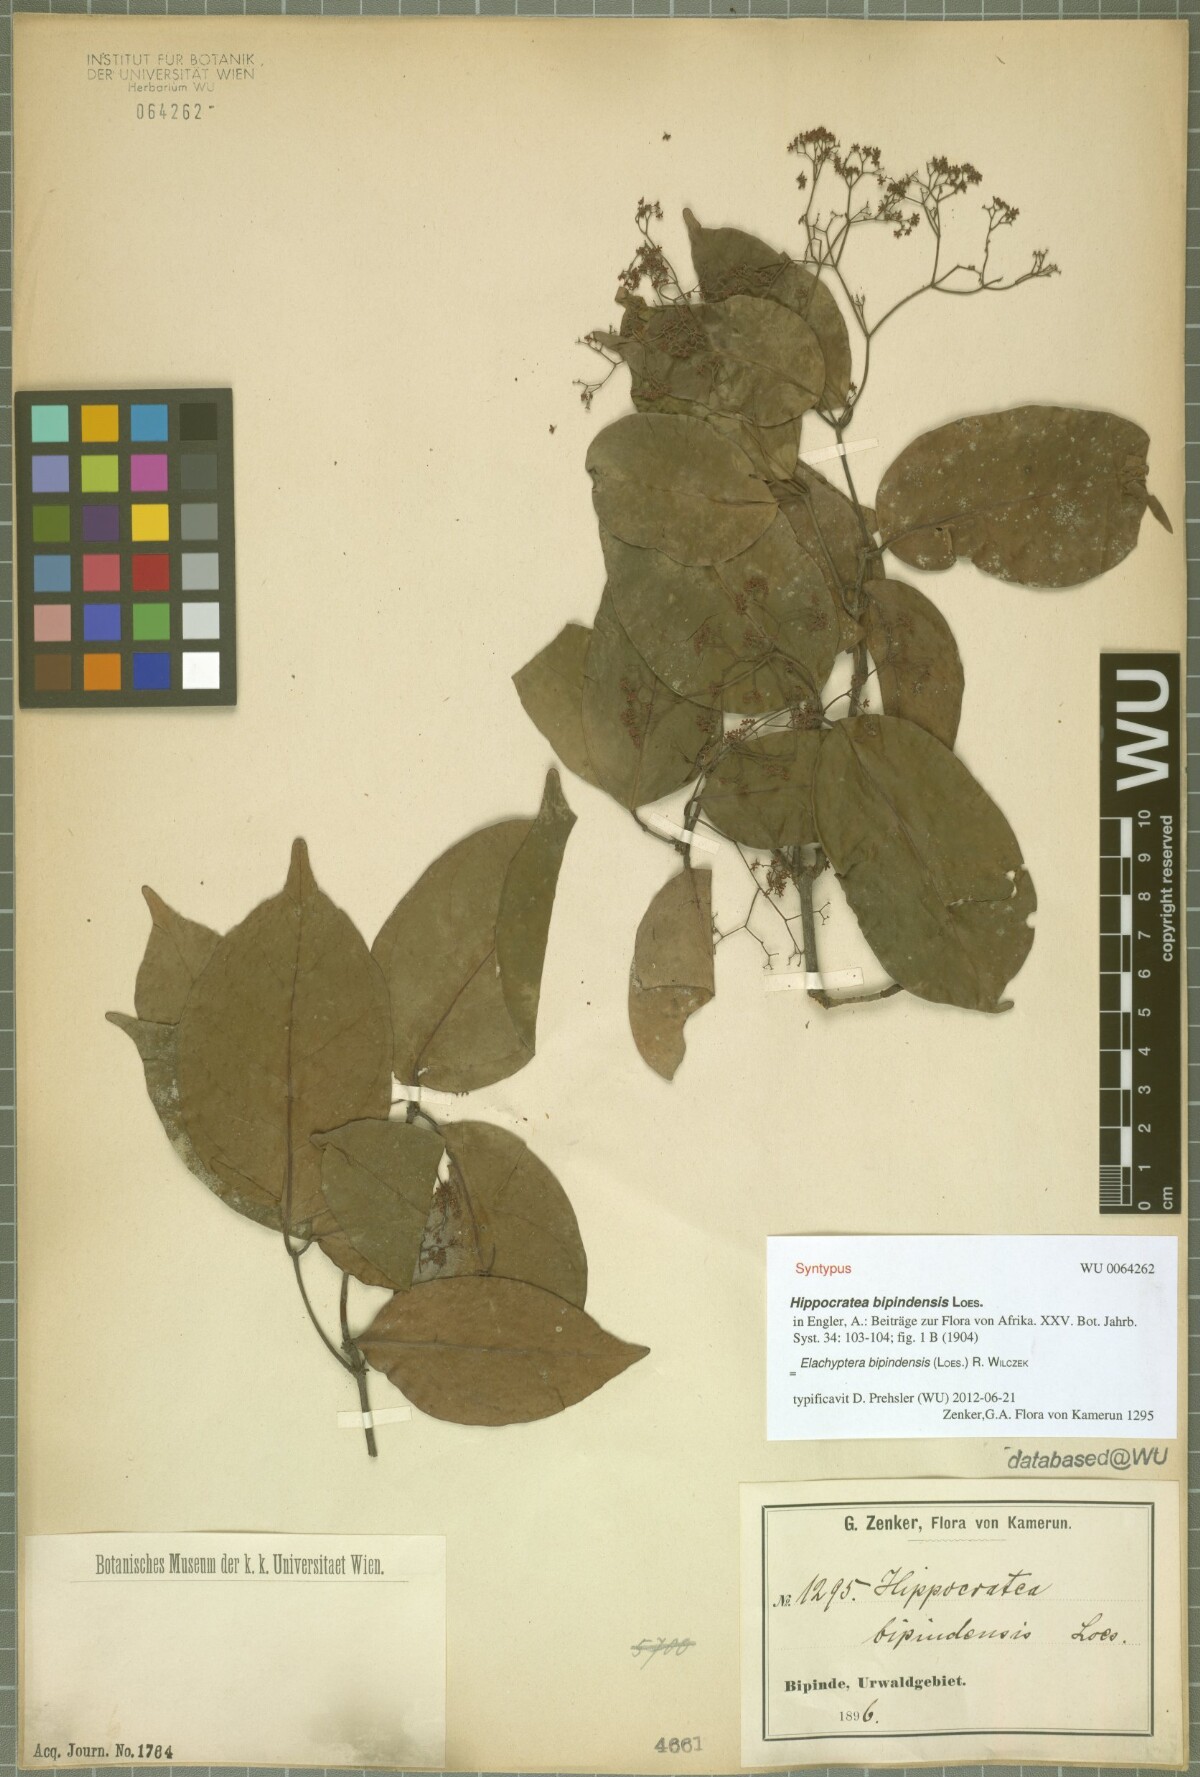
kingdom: Plantae
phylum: Tracheophyta
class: Magnoliopsida
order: Celastrales
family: Celastraceae
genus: Elachyptera
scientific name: Elachyptera bipindensis
